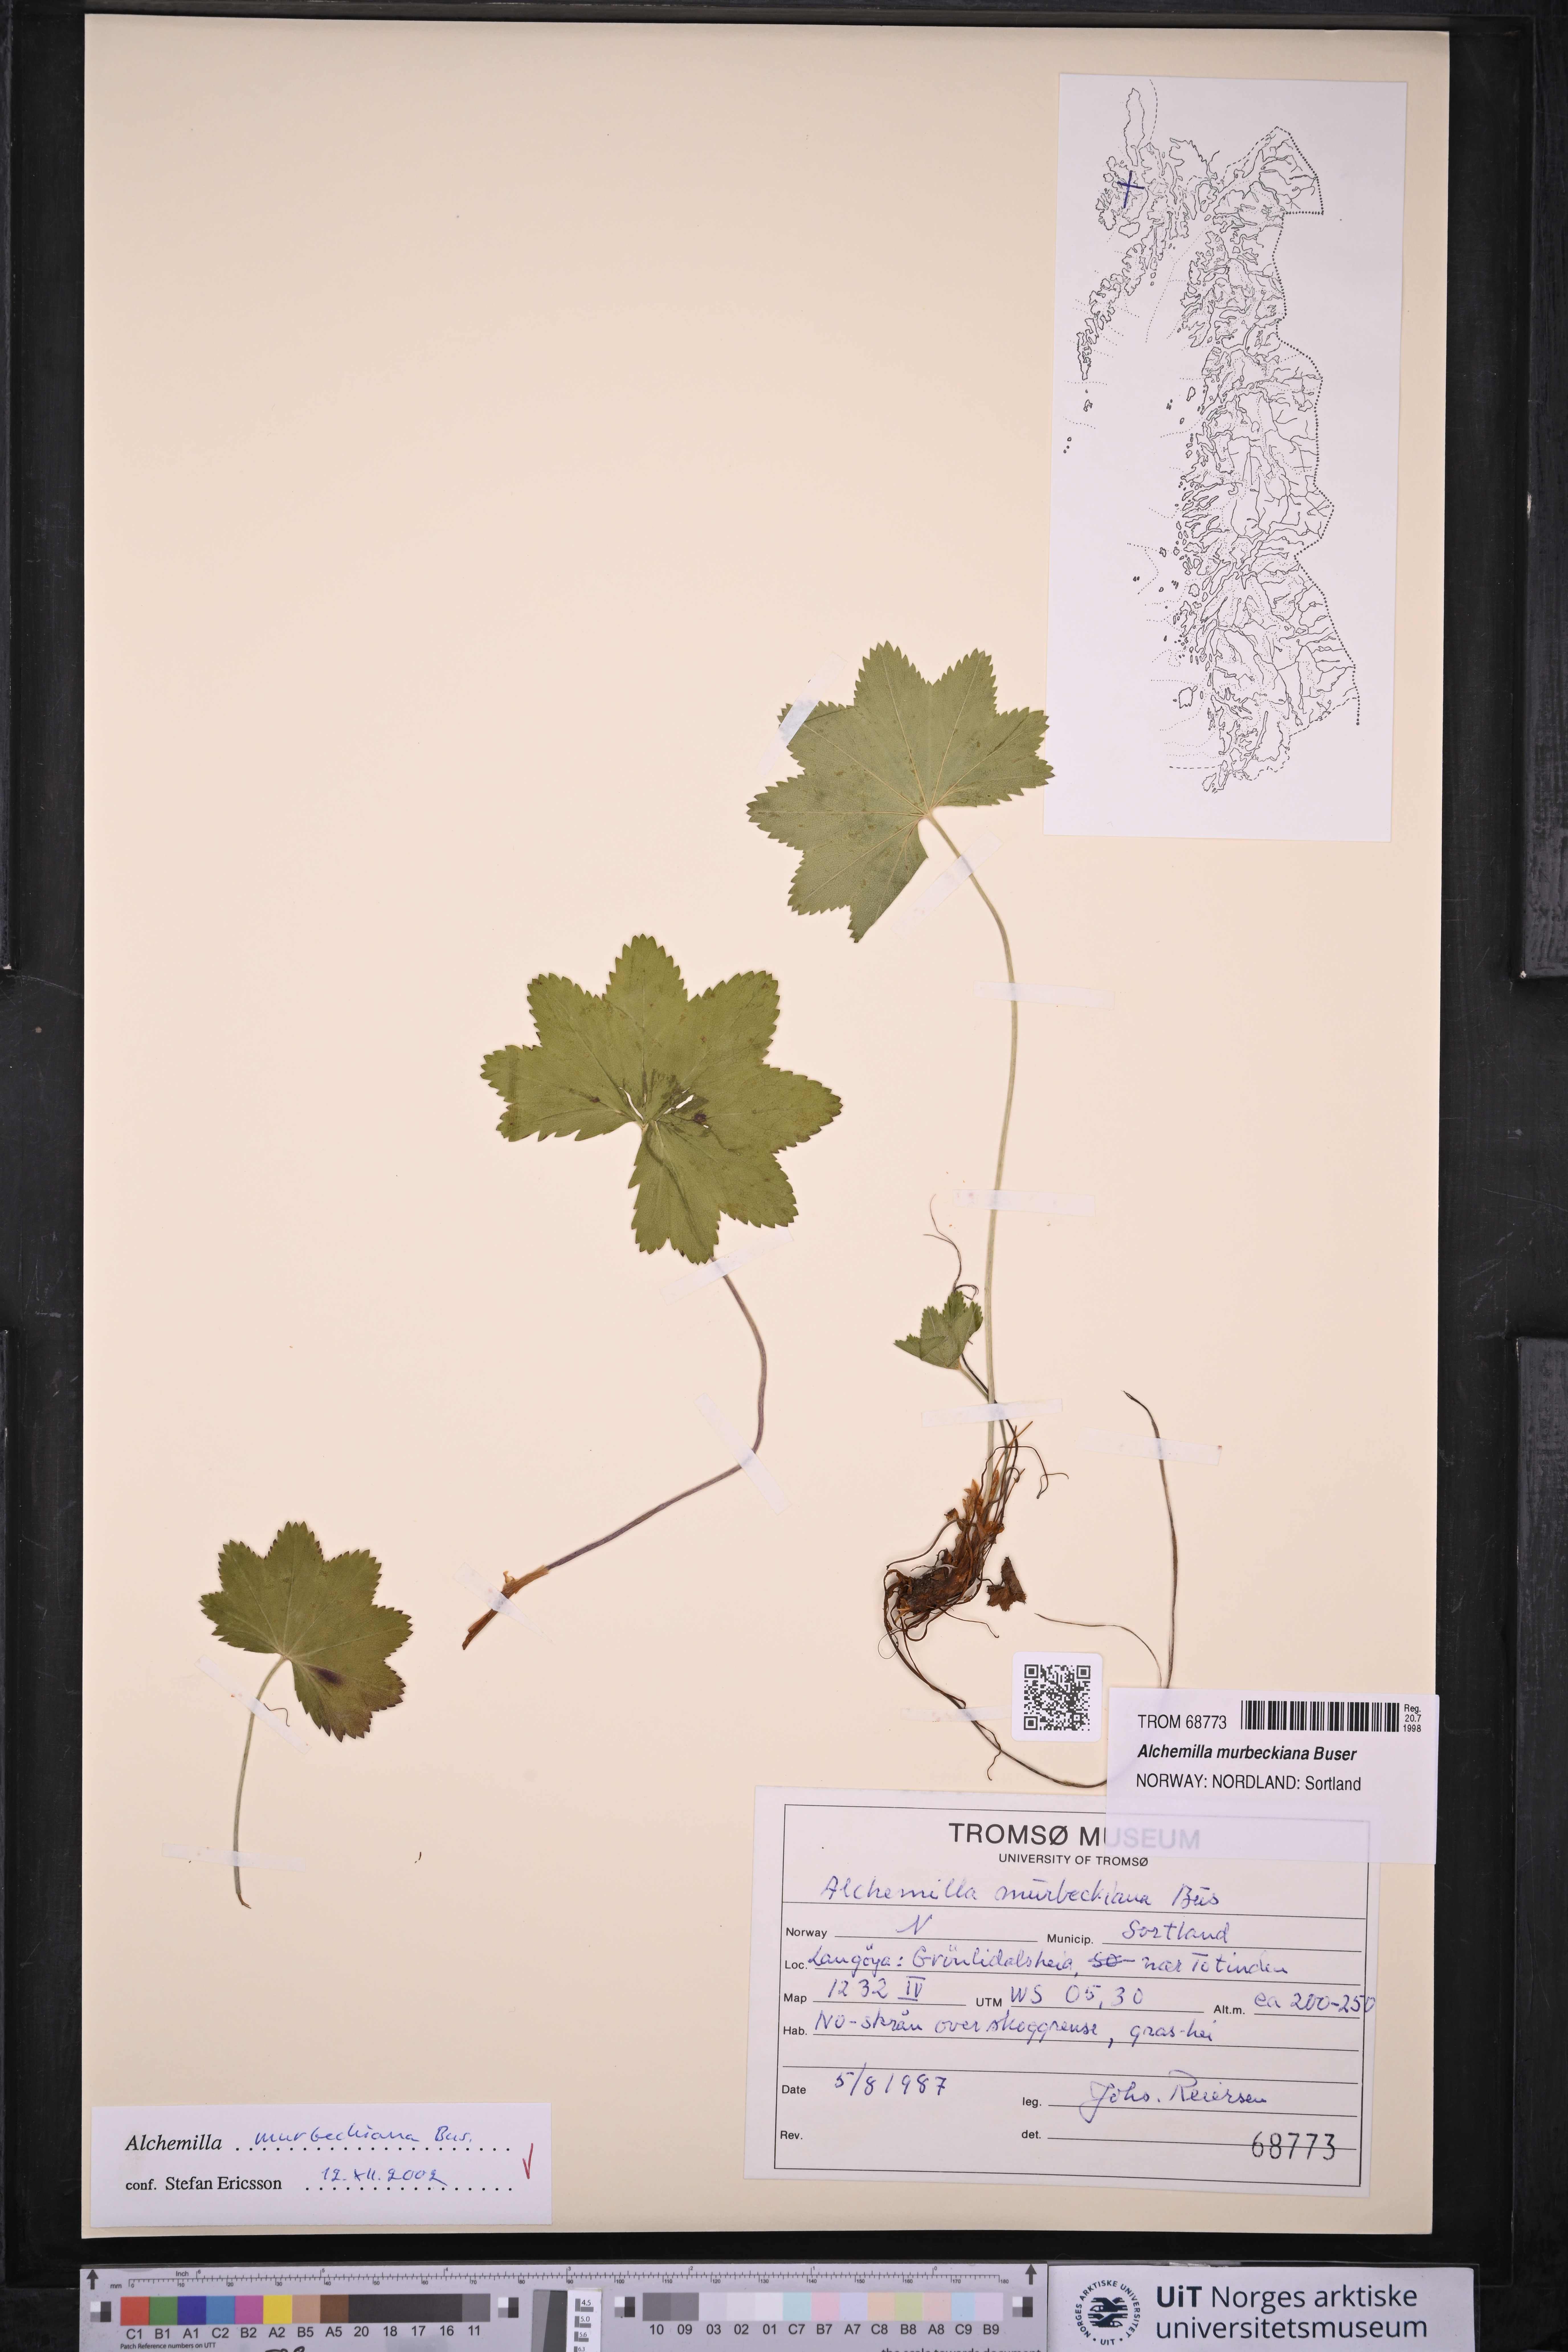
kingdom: Plantae
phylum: Tracheophyta
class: Magnoliopsida
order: Rosales
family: Rosaceae
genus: Alchemilla
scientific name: Alchemilla murbeckiana
